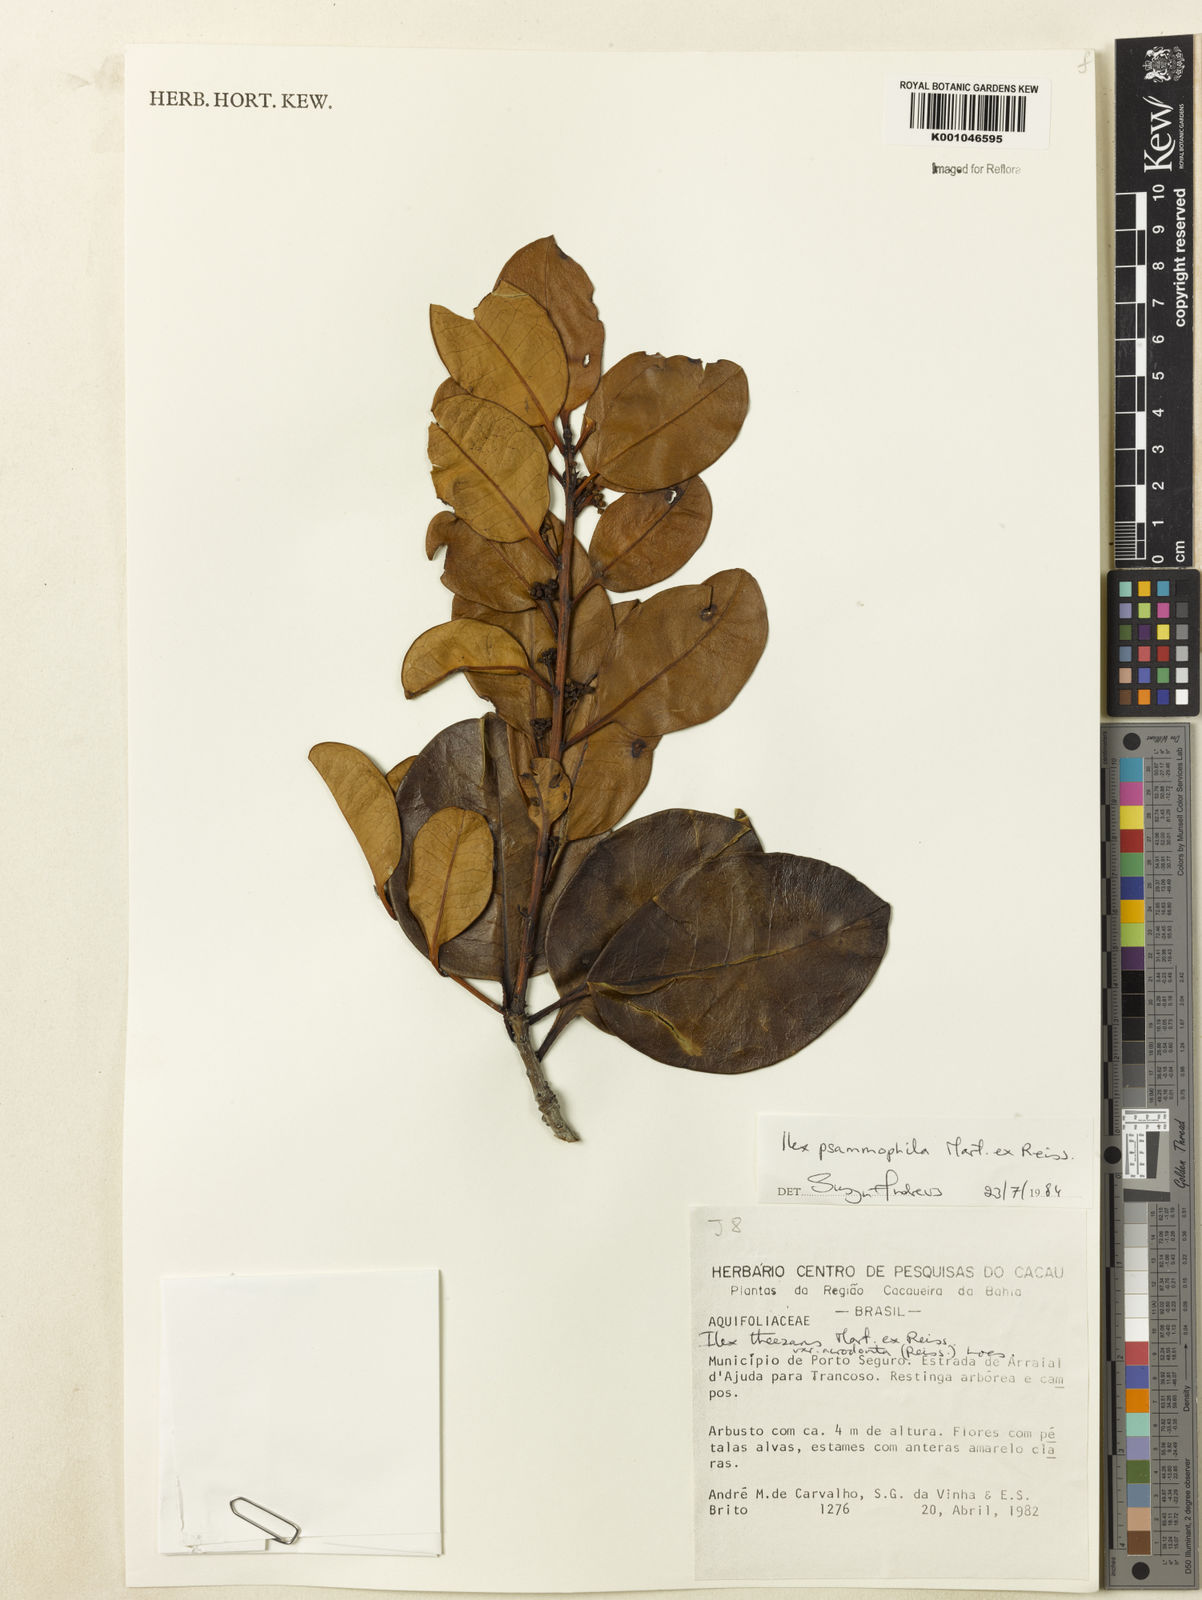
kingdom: Plantae
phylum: Tracheophyta
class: Magnoliopsida
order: Aquifoliales
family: Aquifoliaceae
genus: Ilex
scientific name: Ilex psammophila
